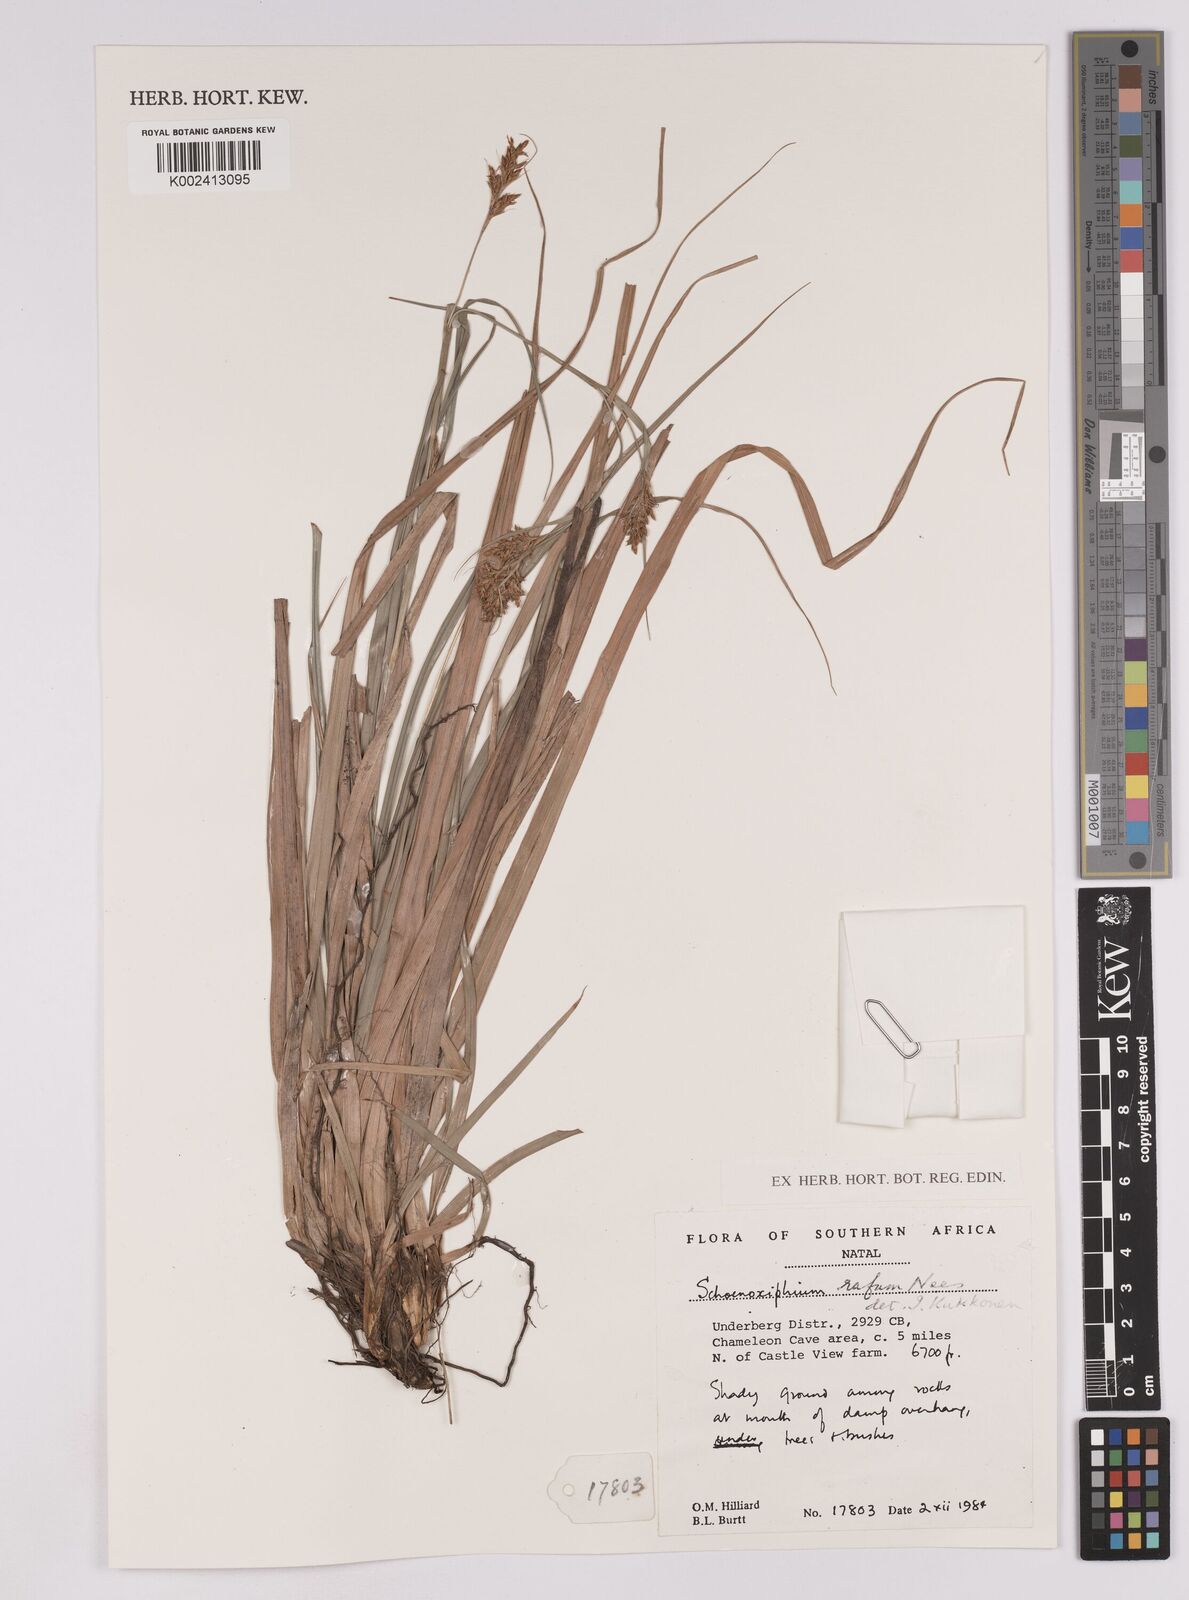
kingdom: Plantae
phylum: Tracheophyta
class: Liliopsida
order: Poales
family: Cyperaceae
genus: Carex
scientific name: Carex ludwigii
